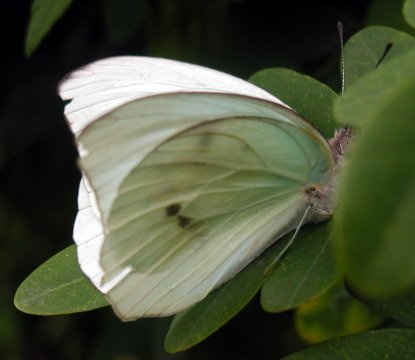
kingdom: Animalia
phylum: Arthropoda
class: Insecta
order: Lepidoptera
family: Pieridae
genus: Ganyra
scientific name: Ganyra josephina
